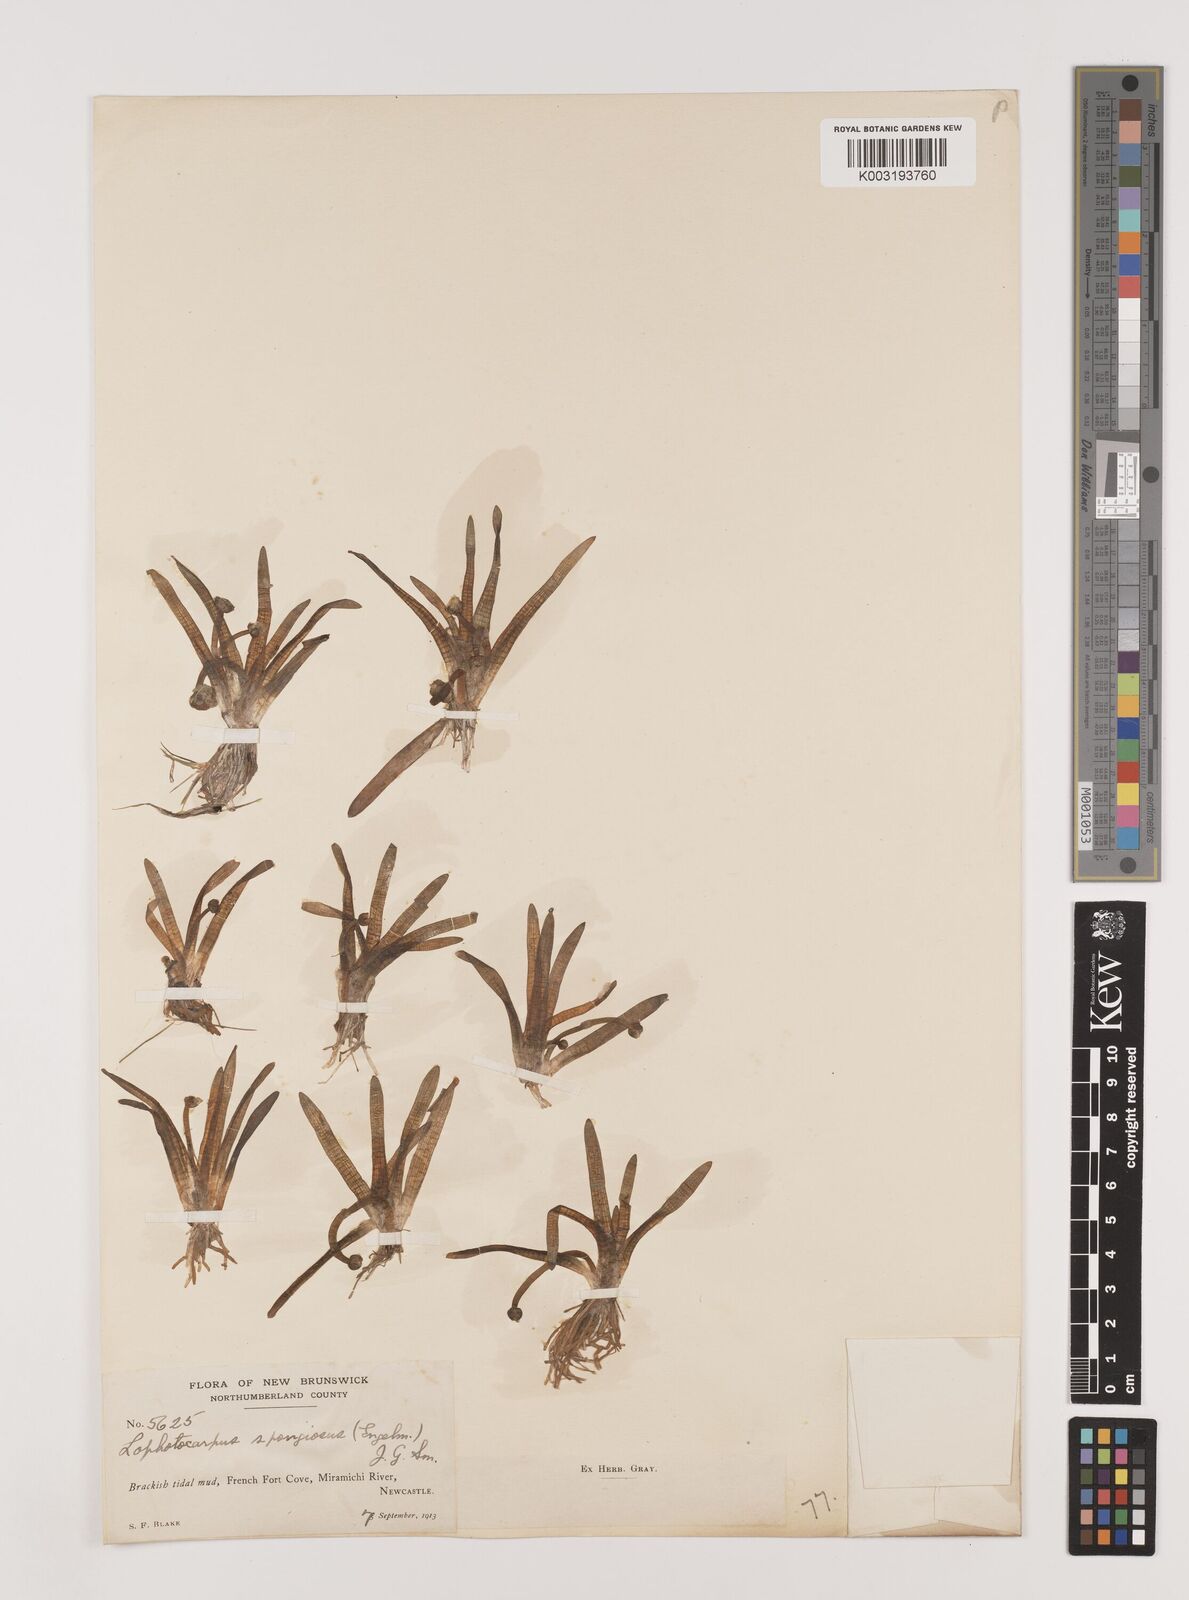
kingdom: Plantae
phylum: Tracheophyta
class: Liliopsida
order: Alismatales
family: Alismataceae
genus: Sagittaria
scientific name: Sagittaria montevidensis
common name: Giant arrowhead
